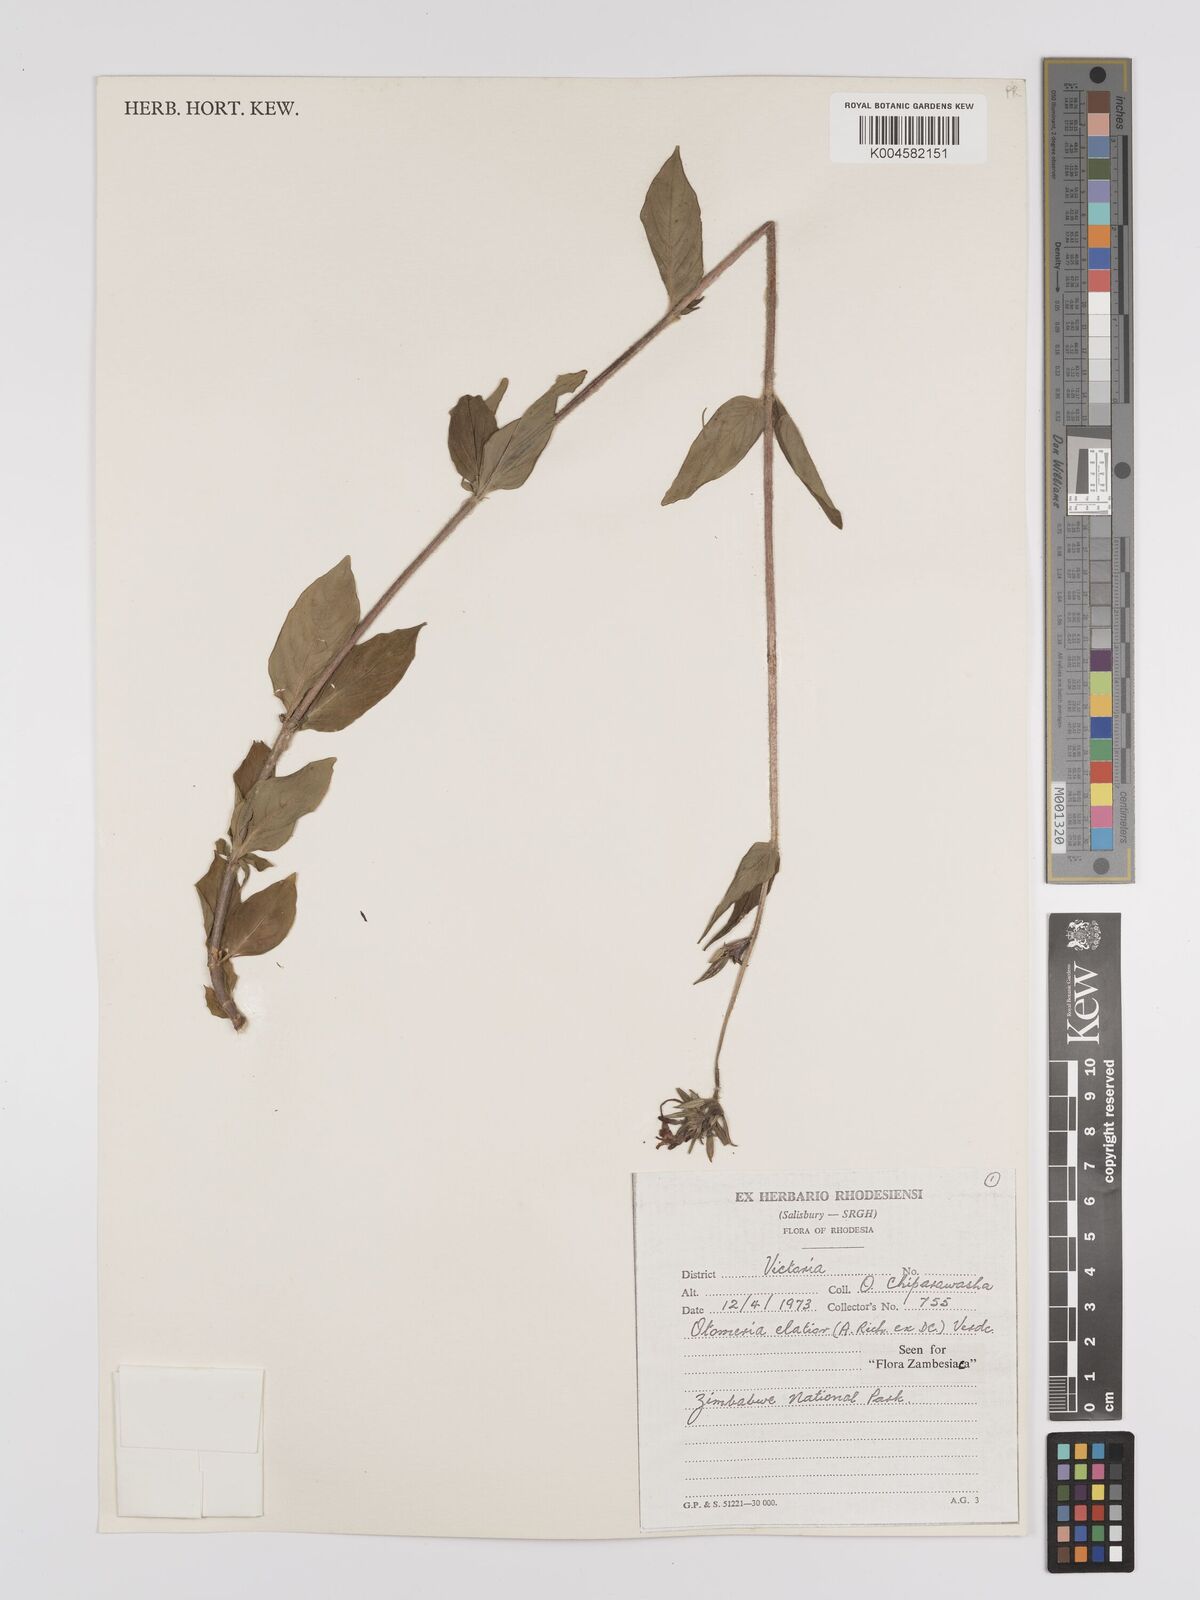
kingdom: Plantae
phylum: Tracheophyta
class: Magnoliopsida
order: Gentianales
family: Rubiaceae
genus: Otomeria
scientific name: Otomeria elatior
